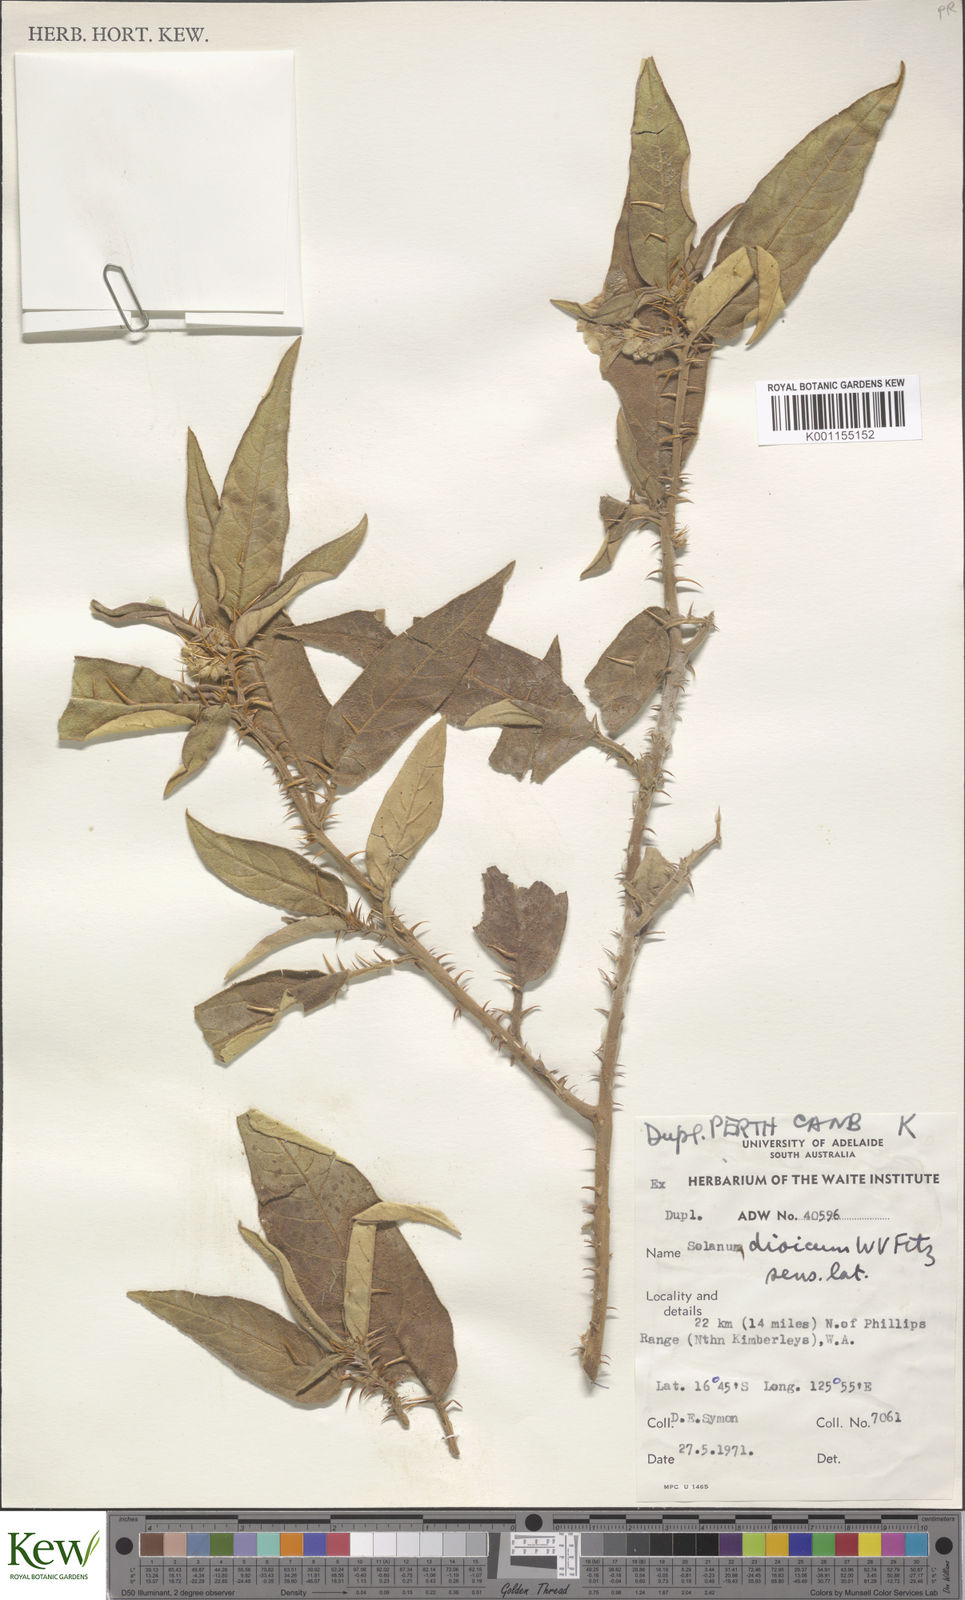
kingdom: Plantae
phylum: Tracheophyta
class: Magnoliopsida
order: Solanales
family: Solanaceae
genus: Solanum
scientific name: Solanum dioicum
